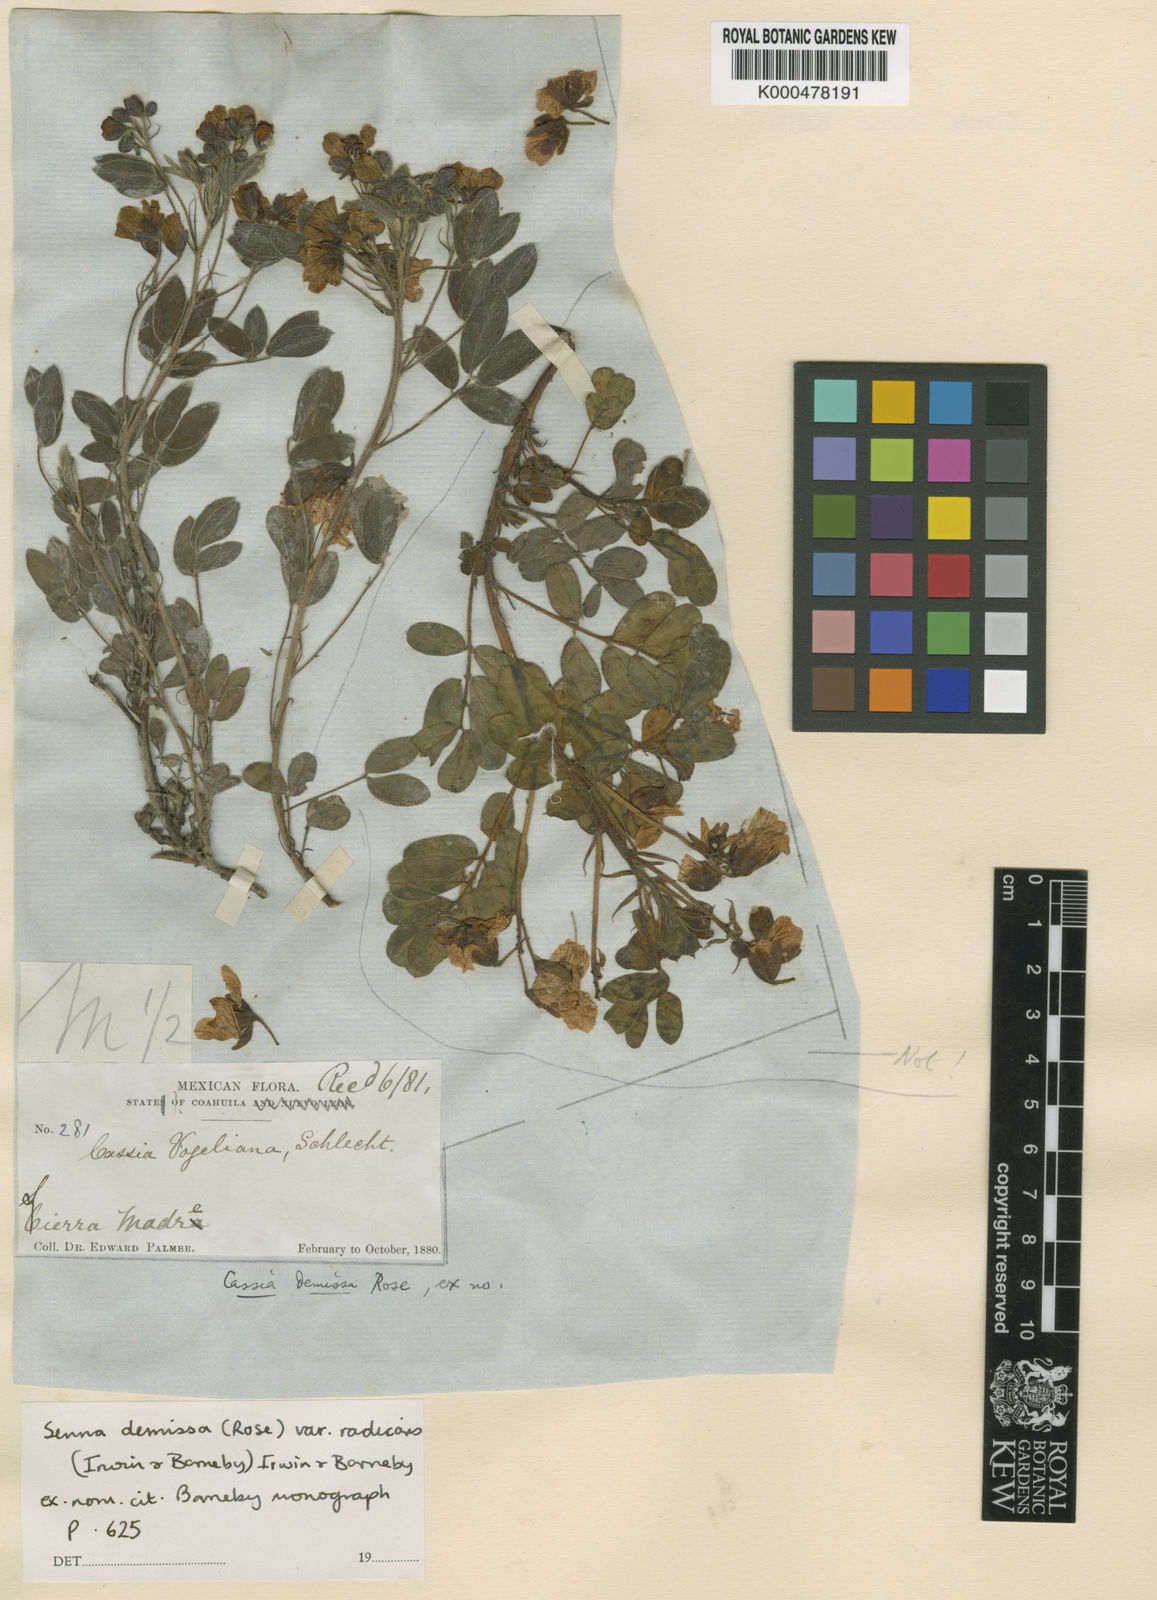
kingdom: Plantae
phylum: Tracheophyta
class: Magnoliopsida
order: Fabales
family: Fabaceae
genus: Senna
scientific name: Senna demissa
